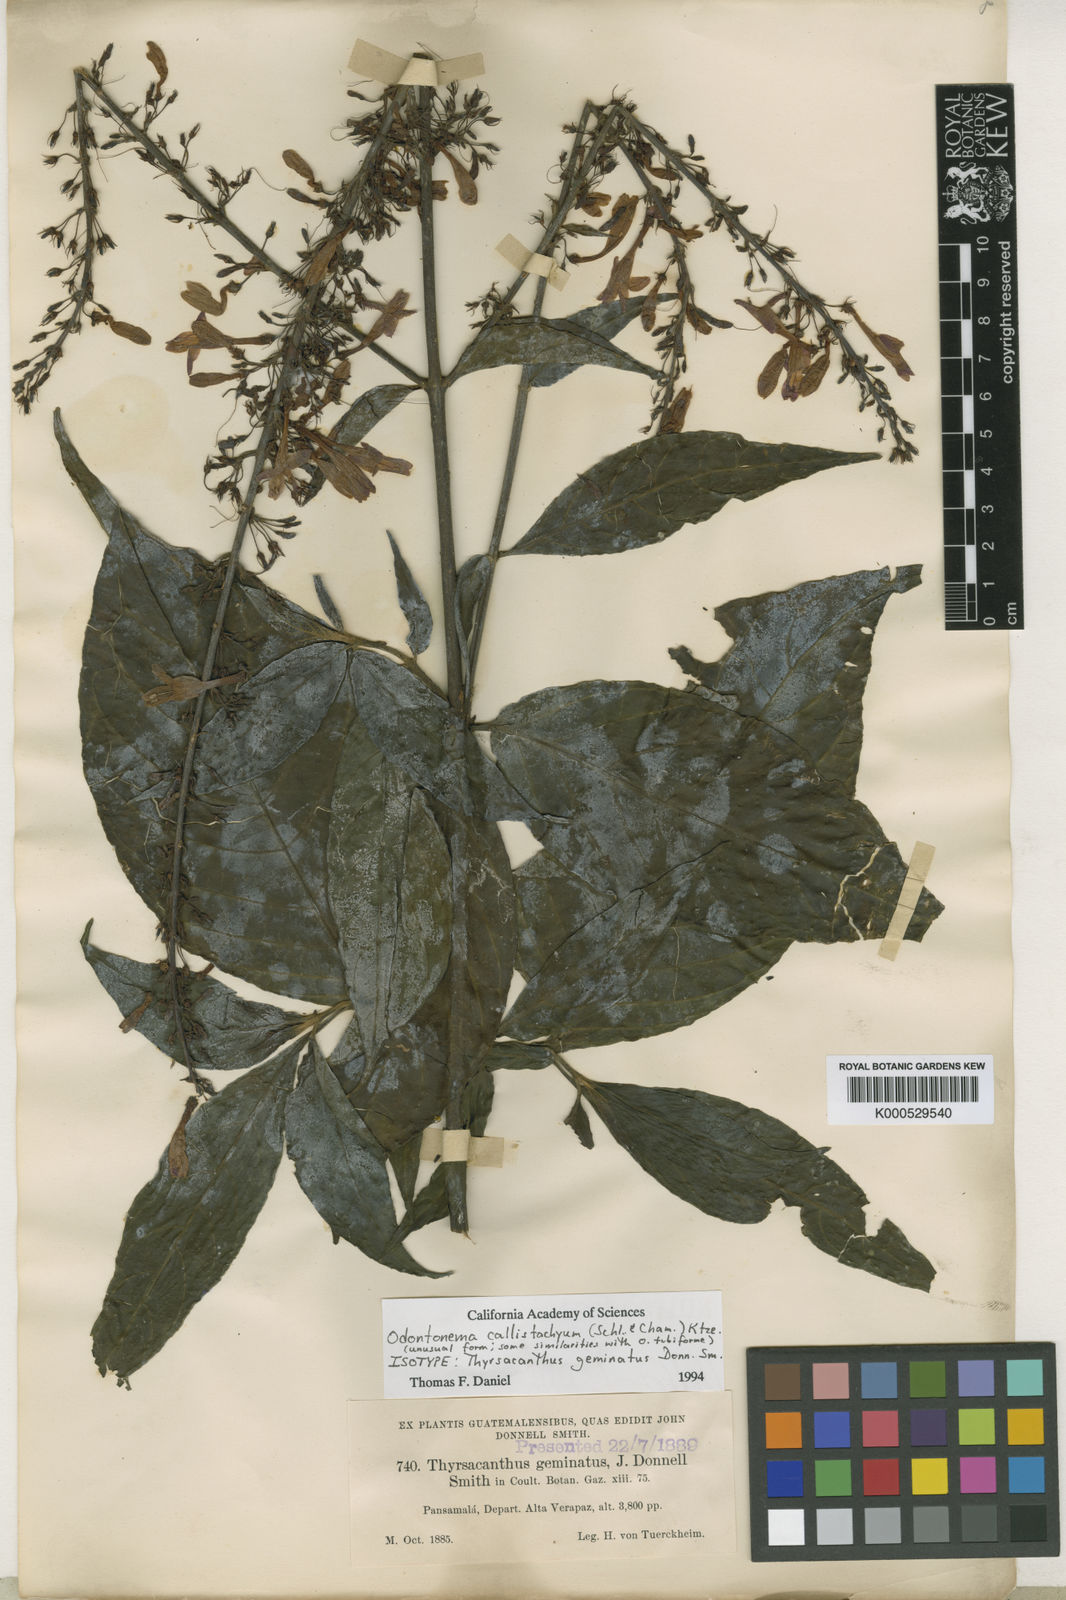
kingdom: Plantae
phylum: Tracheophyta
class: Magnoliopsida
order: Lamiales
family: Acanthaceae
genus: Odontonema
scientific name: Odontonema callistachyum
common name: Firespike
